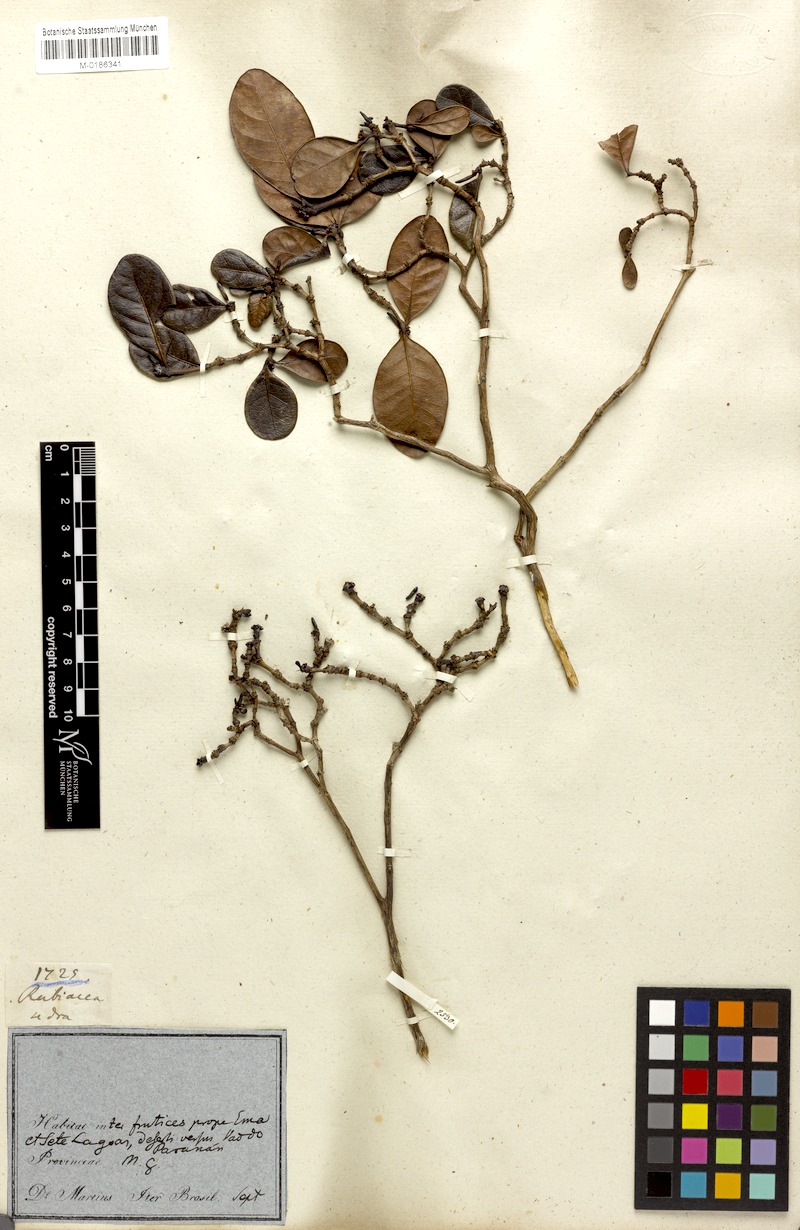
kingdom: Plantae
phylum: Tracheophyta
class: Magnoliopsida
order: Gentianales
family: Rubiaceae
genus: Cordiera
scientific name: Cordiera obtusa
